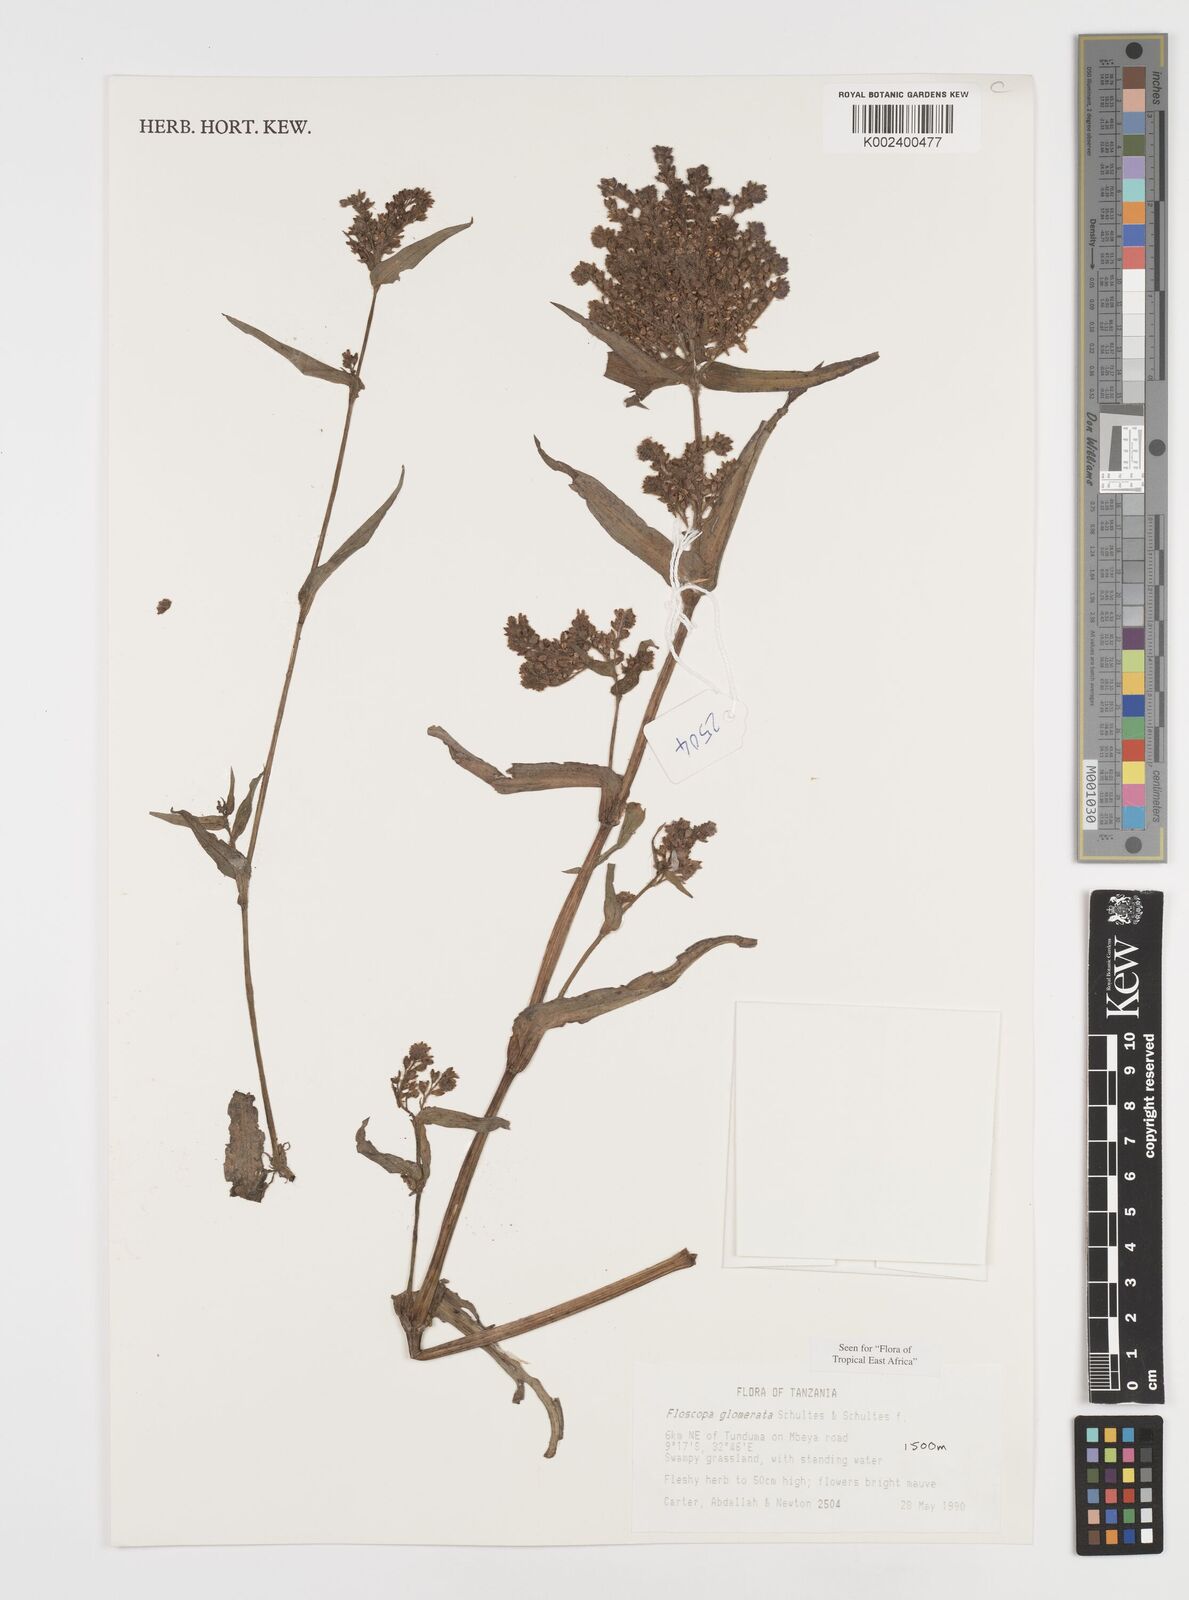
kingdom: Plantae
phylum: Tracheophyta
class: Liliopsida
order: Commelinales
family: Commelinaceae
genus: Floscopa
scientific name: Floscopa glomerata
